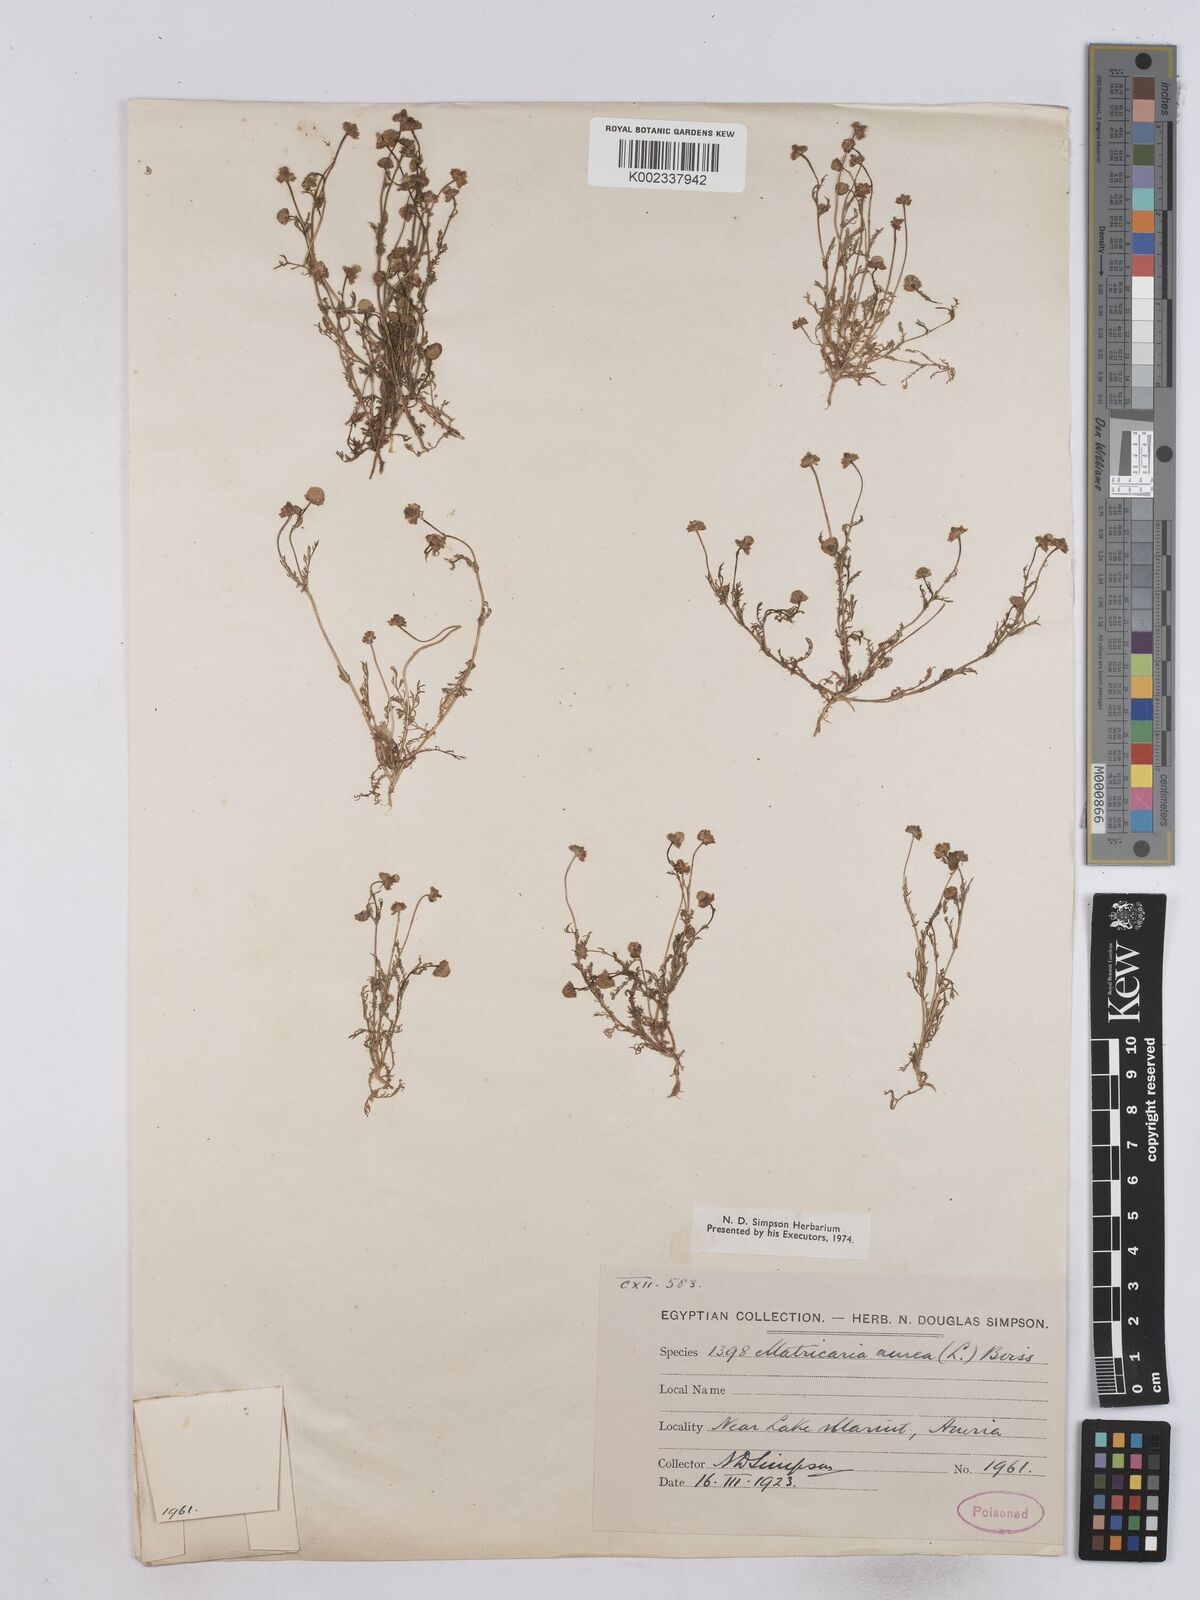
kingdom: Plantae
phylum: Tracheophyta
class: Magnoliopsida
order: Asterales
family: Asteraceae
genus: Matricaria
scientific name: Matricaria aurea
